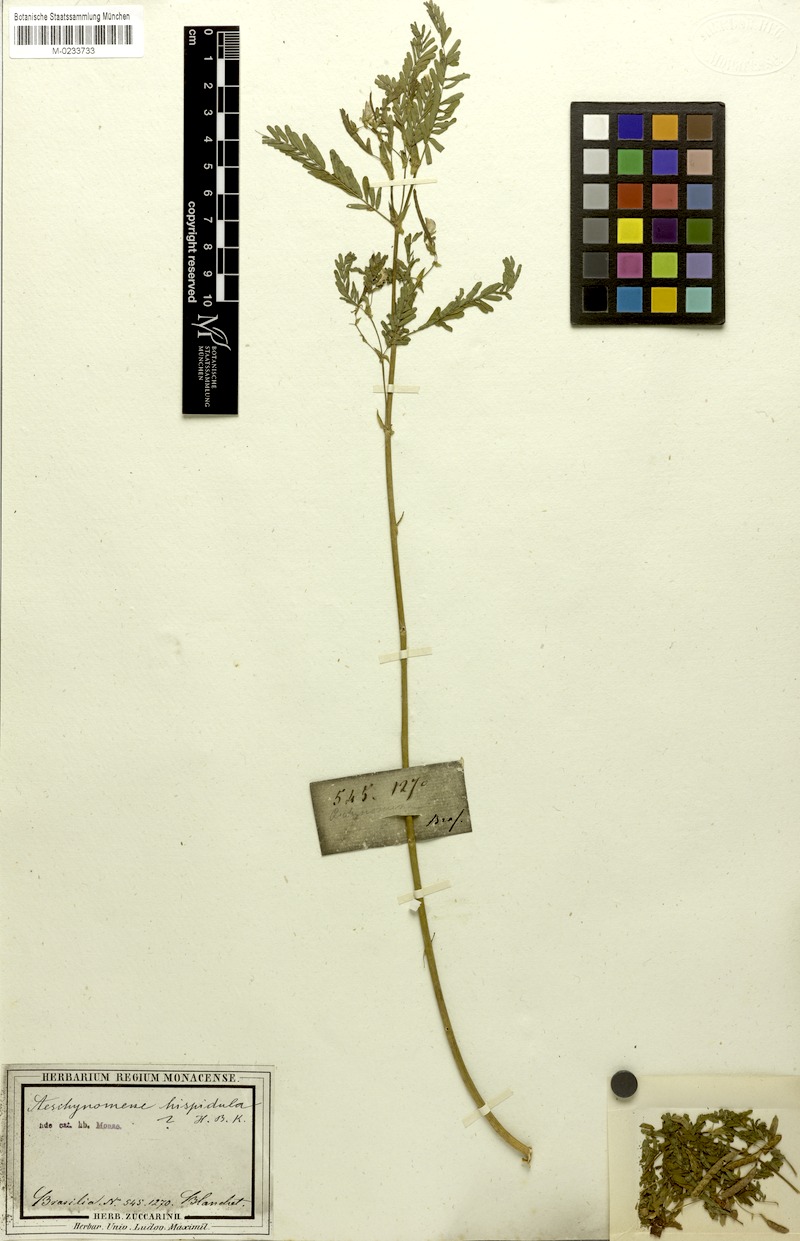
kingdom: Plantae
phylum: Tracheophyta
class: Magnoliopsida
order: Fabales
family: Fabaceae
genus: Aeschynomene
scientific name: Aeschynomene rudis
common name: Rough joint-vetch
